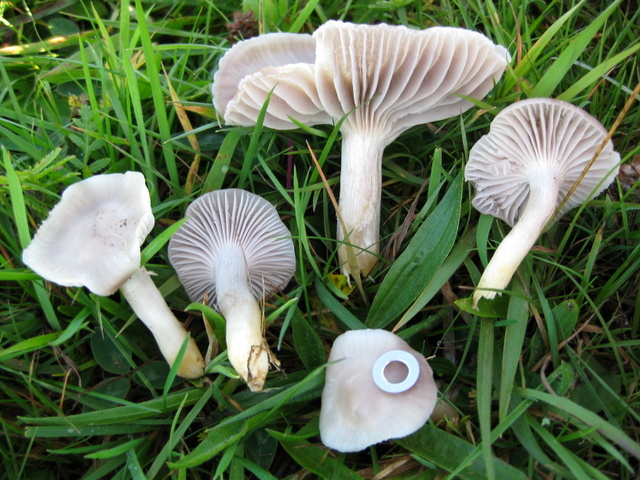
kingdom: Fungi
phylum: Basidiomycota
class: Agaricomycetes
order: Agaricales
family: Hygrophoraceae
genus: Cuphophyllus
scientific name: Cuphophyllus flavipes
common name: gulfodet vokshat
